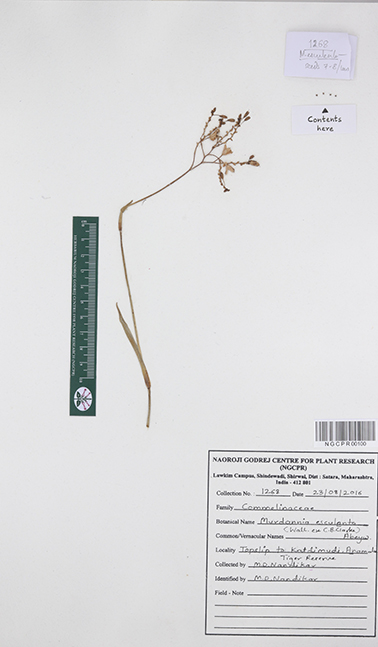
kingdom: Plantae
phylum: Tracheophyta
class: Liliopsida
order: Commelinales
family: Commelinaceae
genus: Murdannia
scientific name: Murdannia esculenta
